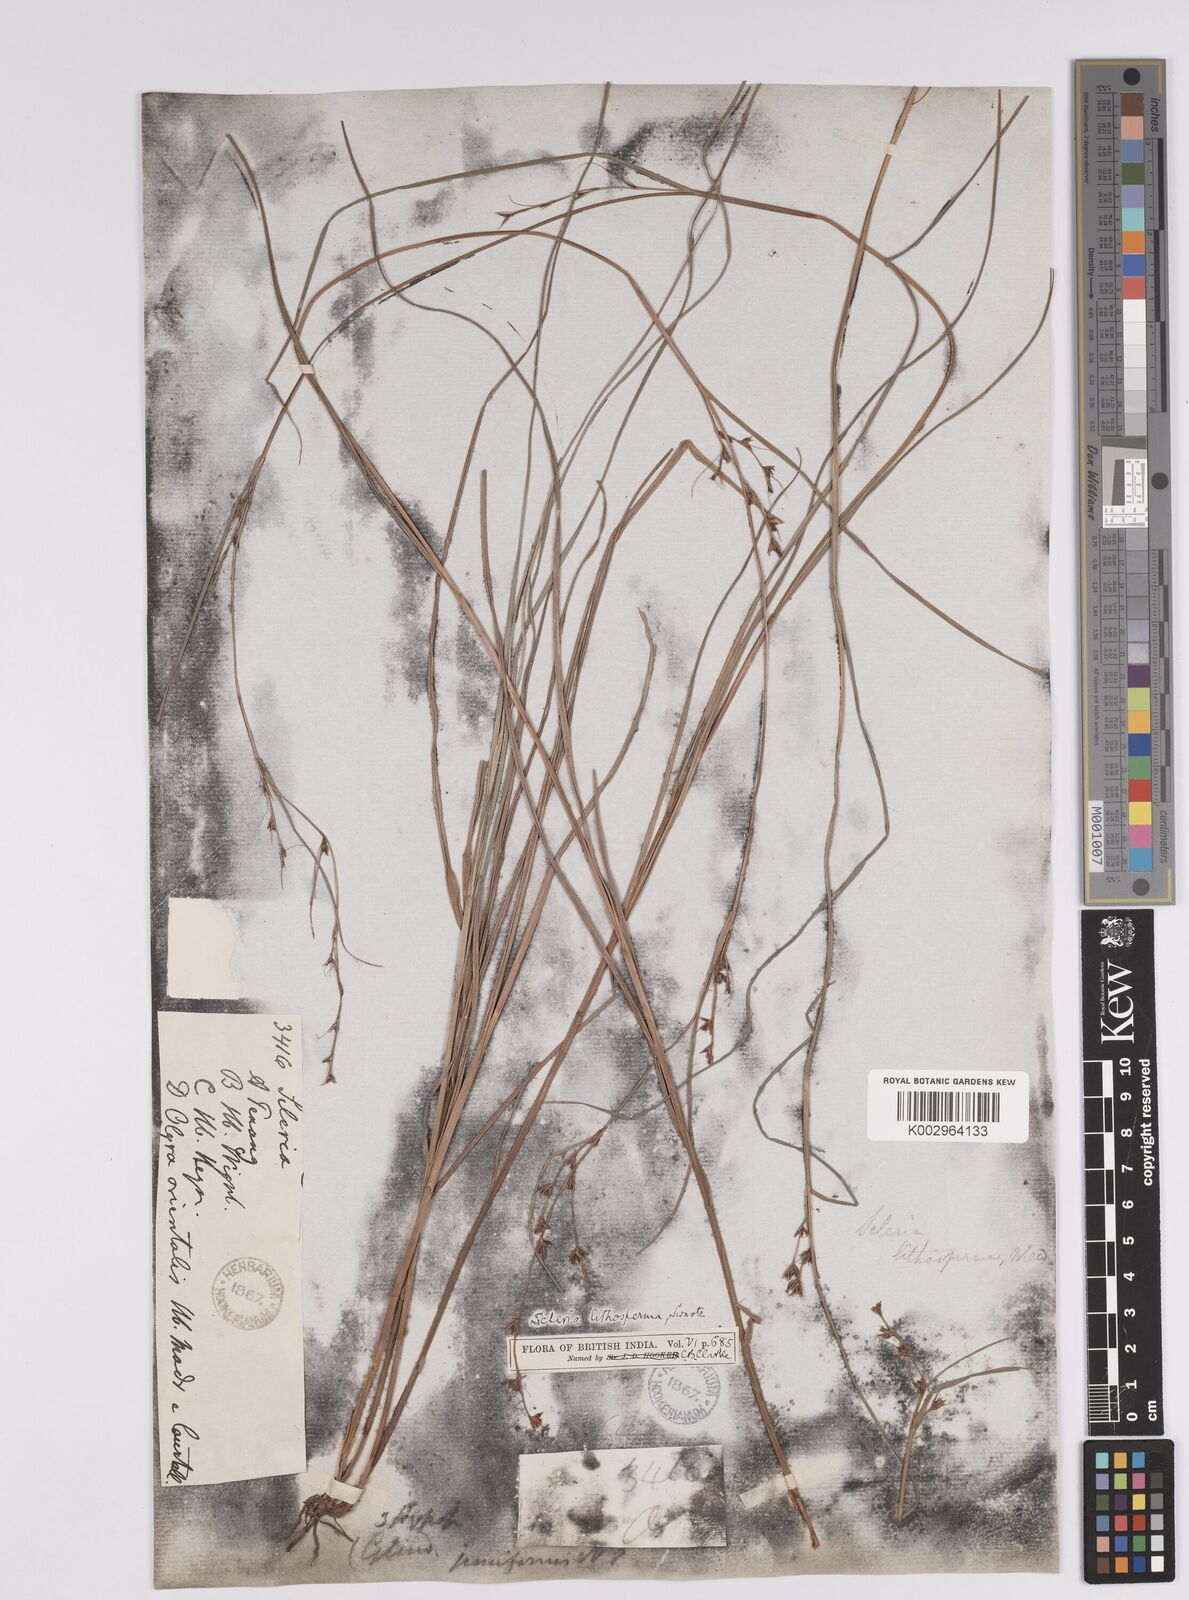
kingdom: Plantae
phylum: Tracheophyta
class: Liliopsida
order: Poales
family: Cyperaceae
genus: Scleria
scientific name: Scleria lithosperma
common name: Florida keys nut-rush
